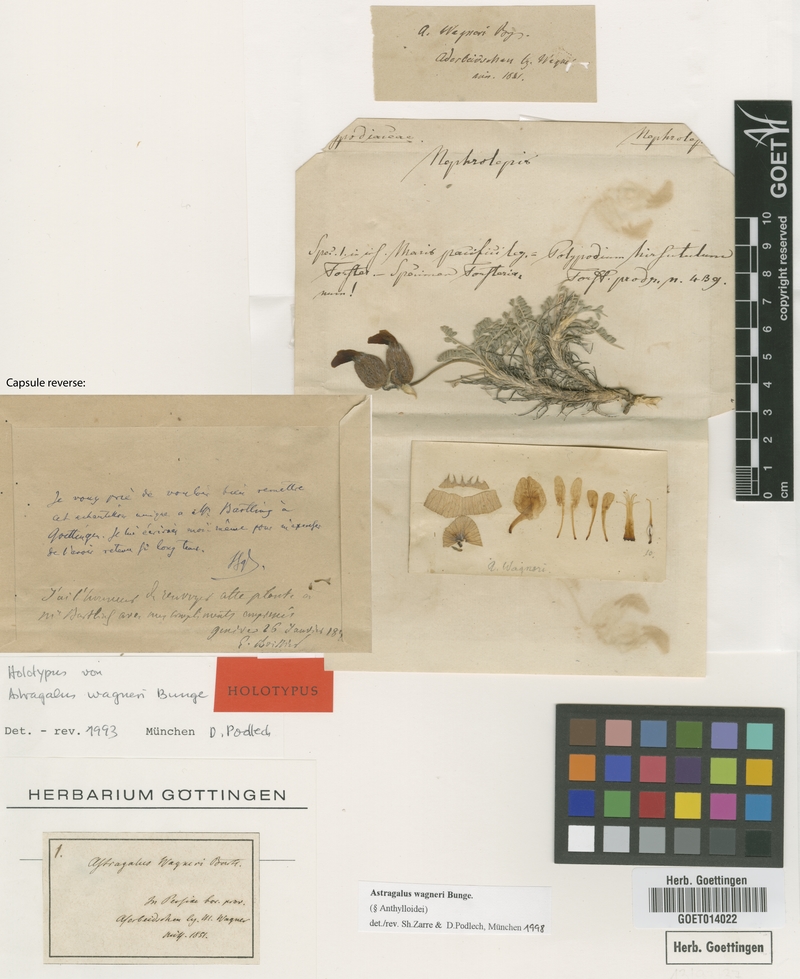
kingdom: Plantae
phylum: Tracheophyta
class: Magnoliopsida
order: Fabales
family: Fabaceae
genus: Astragalus
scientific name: Astragalus wagneri
